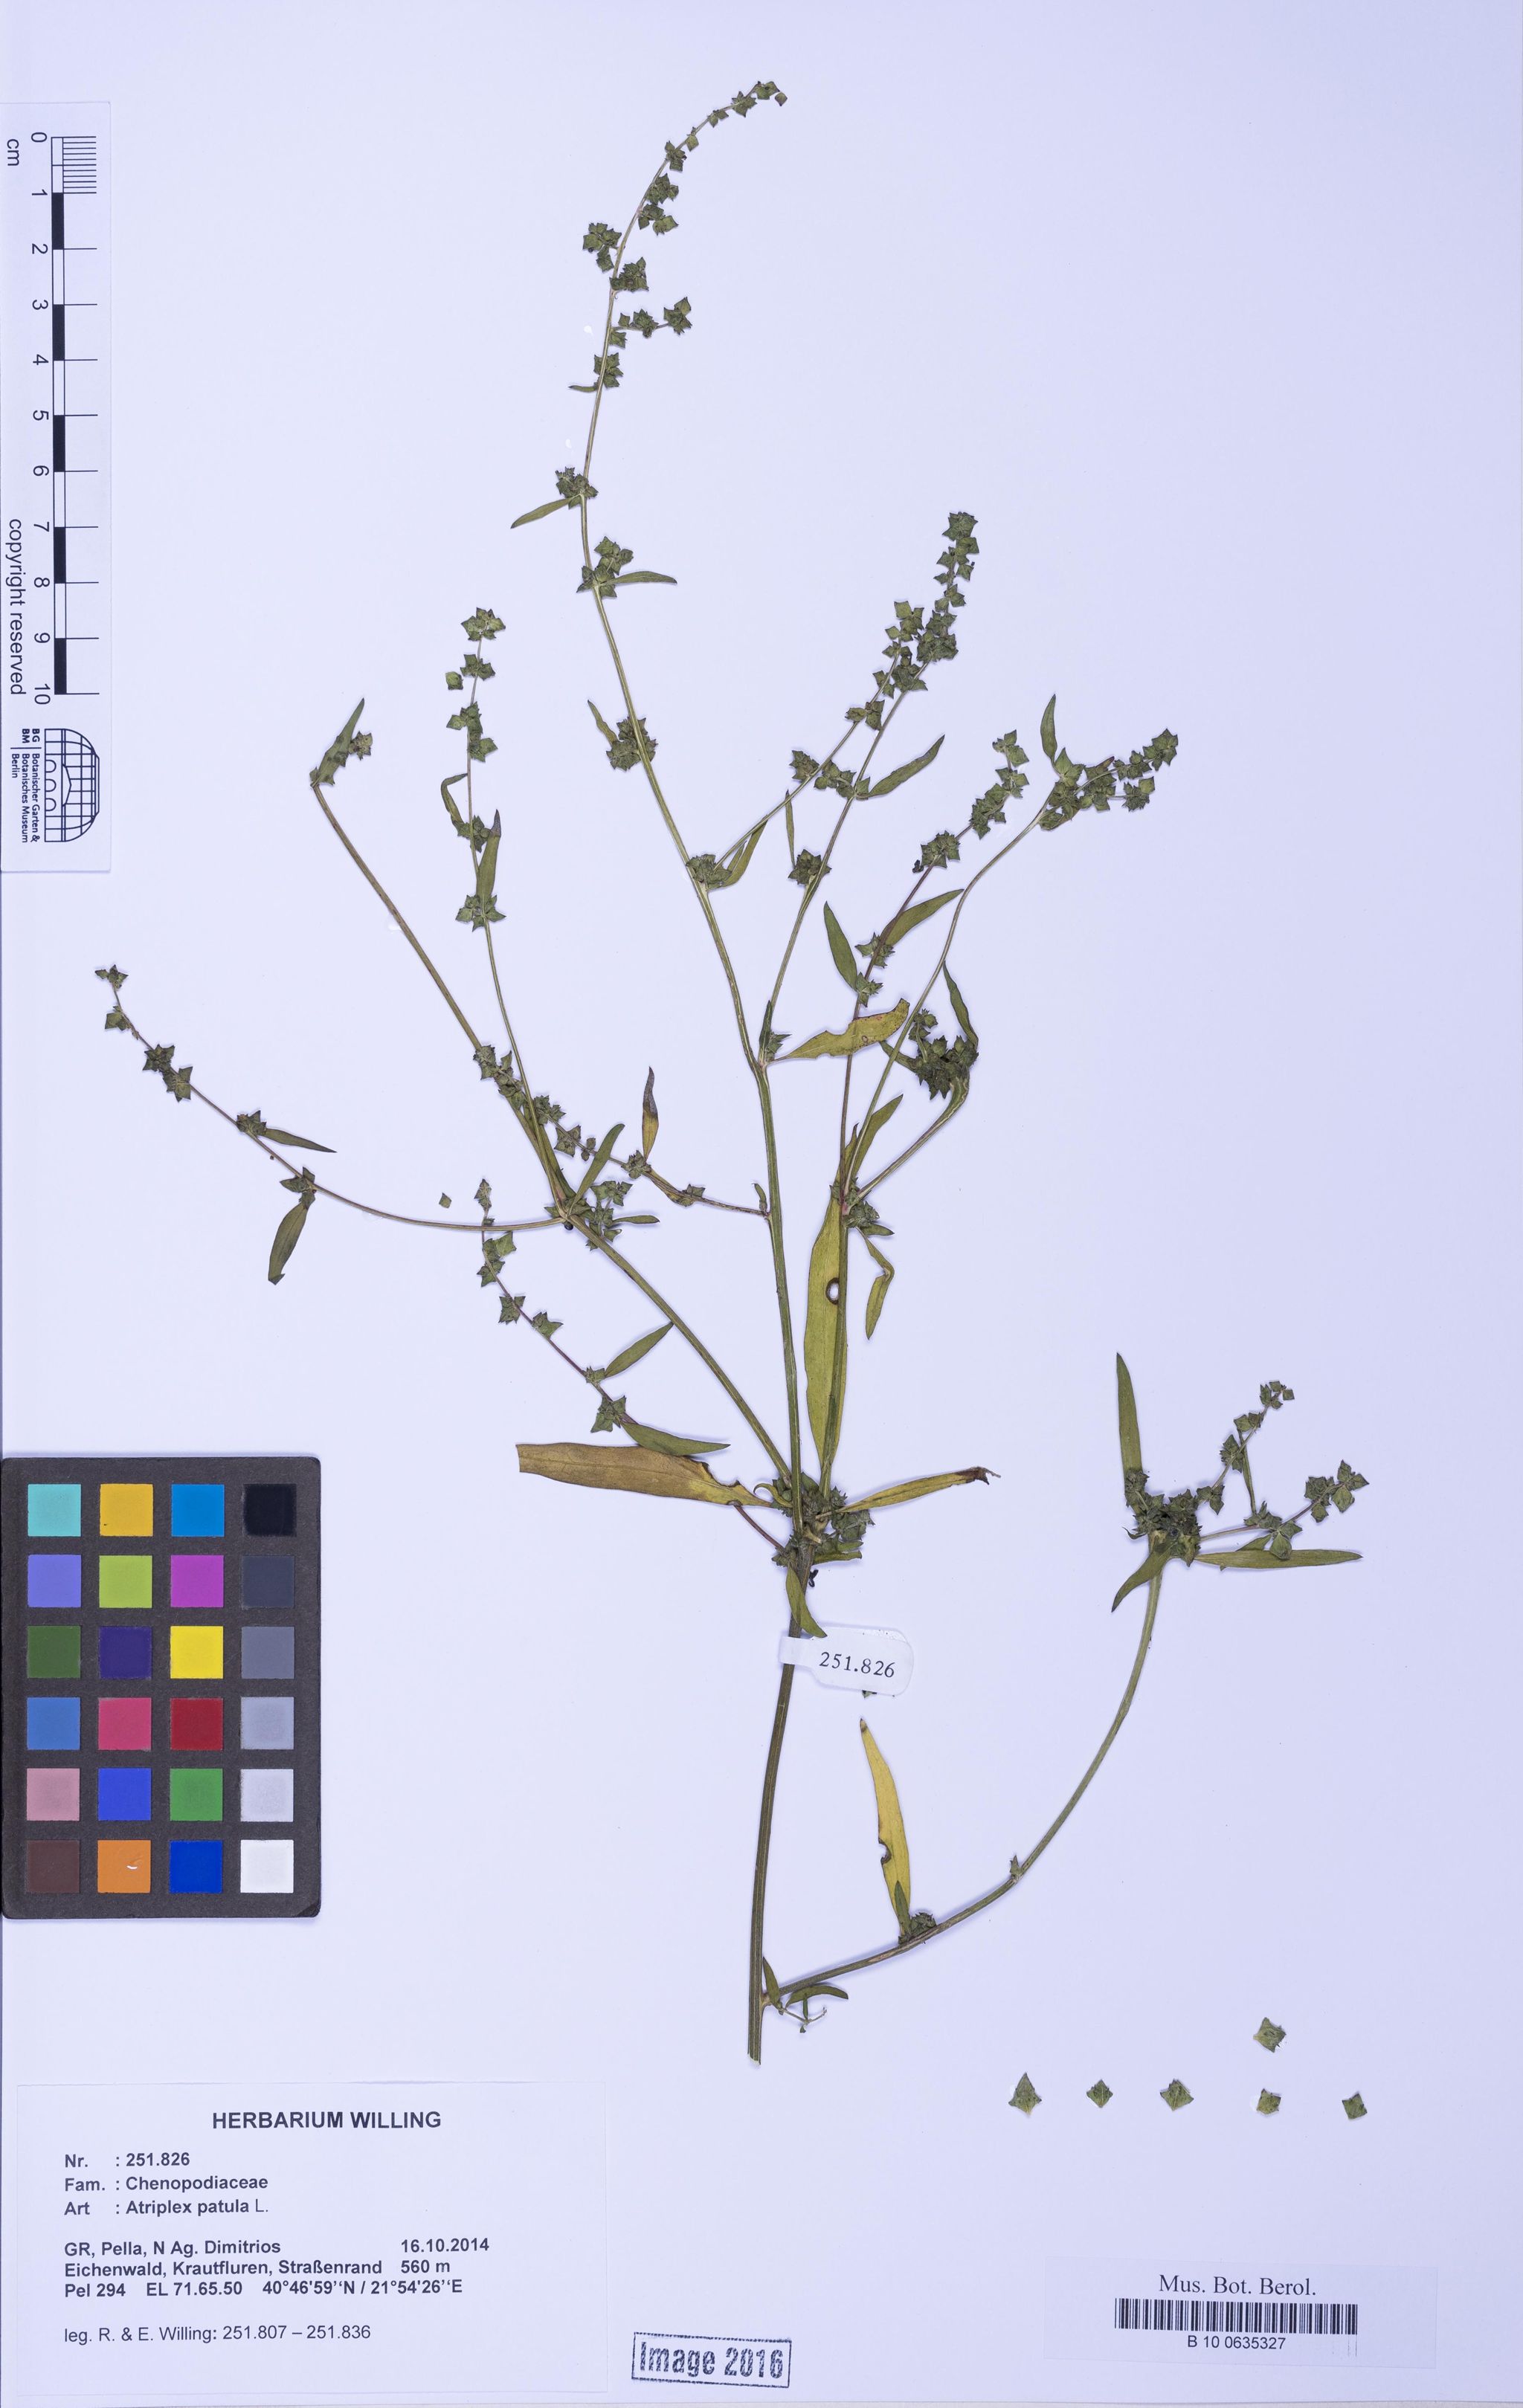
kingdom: Plantae
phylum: Tracheophyta
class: Magnoliopsida
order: Caryophyllales
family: Amaranthaceae
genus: Atriplex
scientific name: Atriplex patula
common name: Common orache
